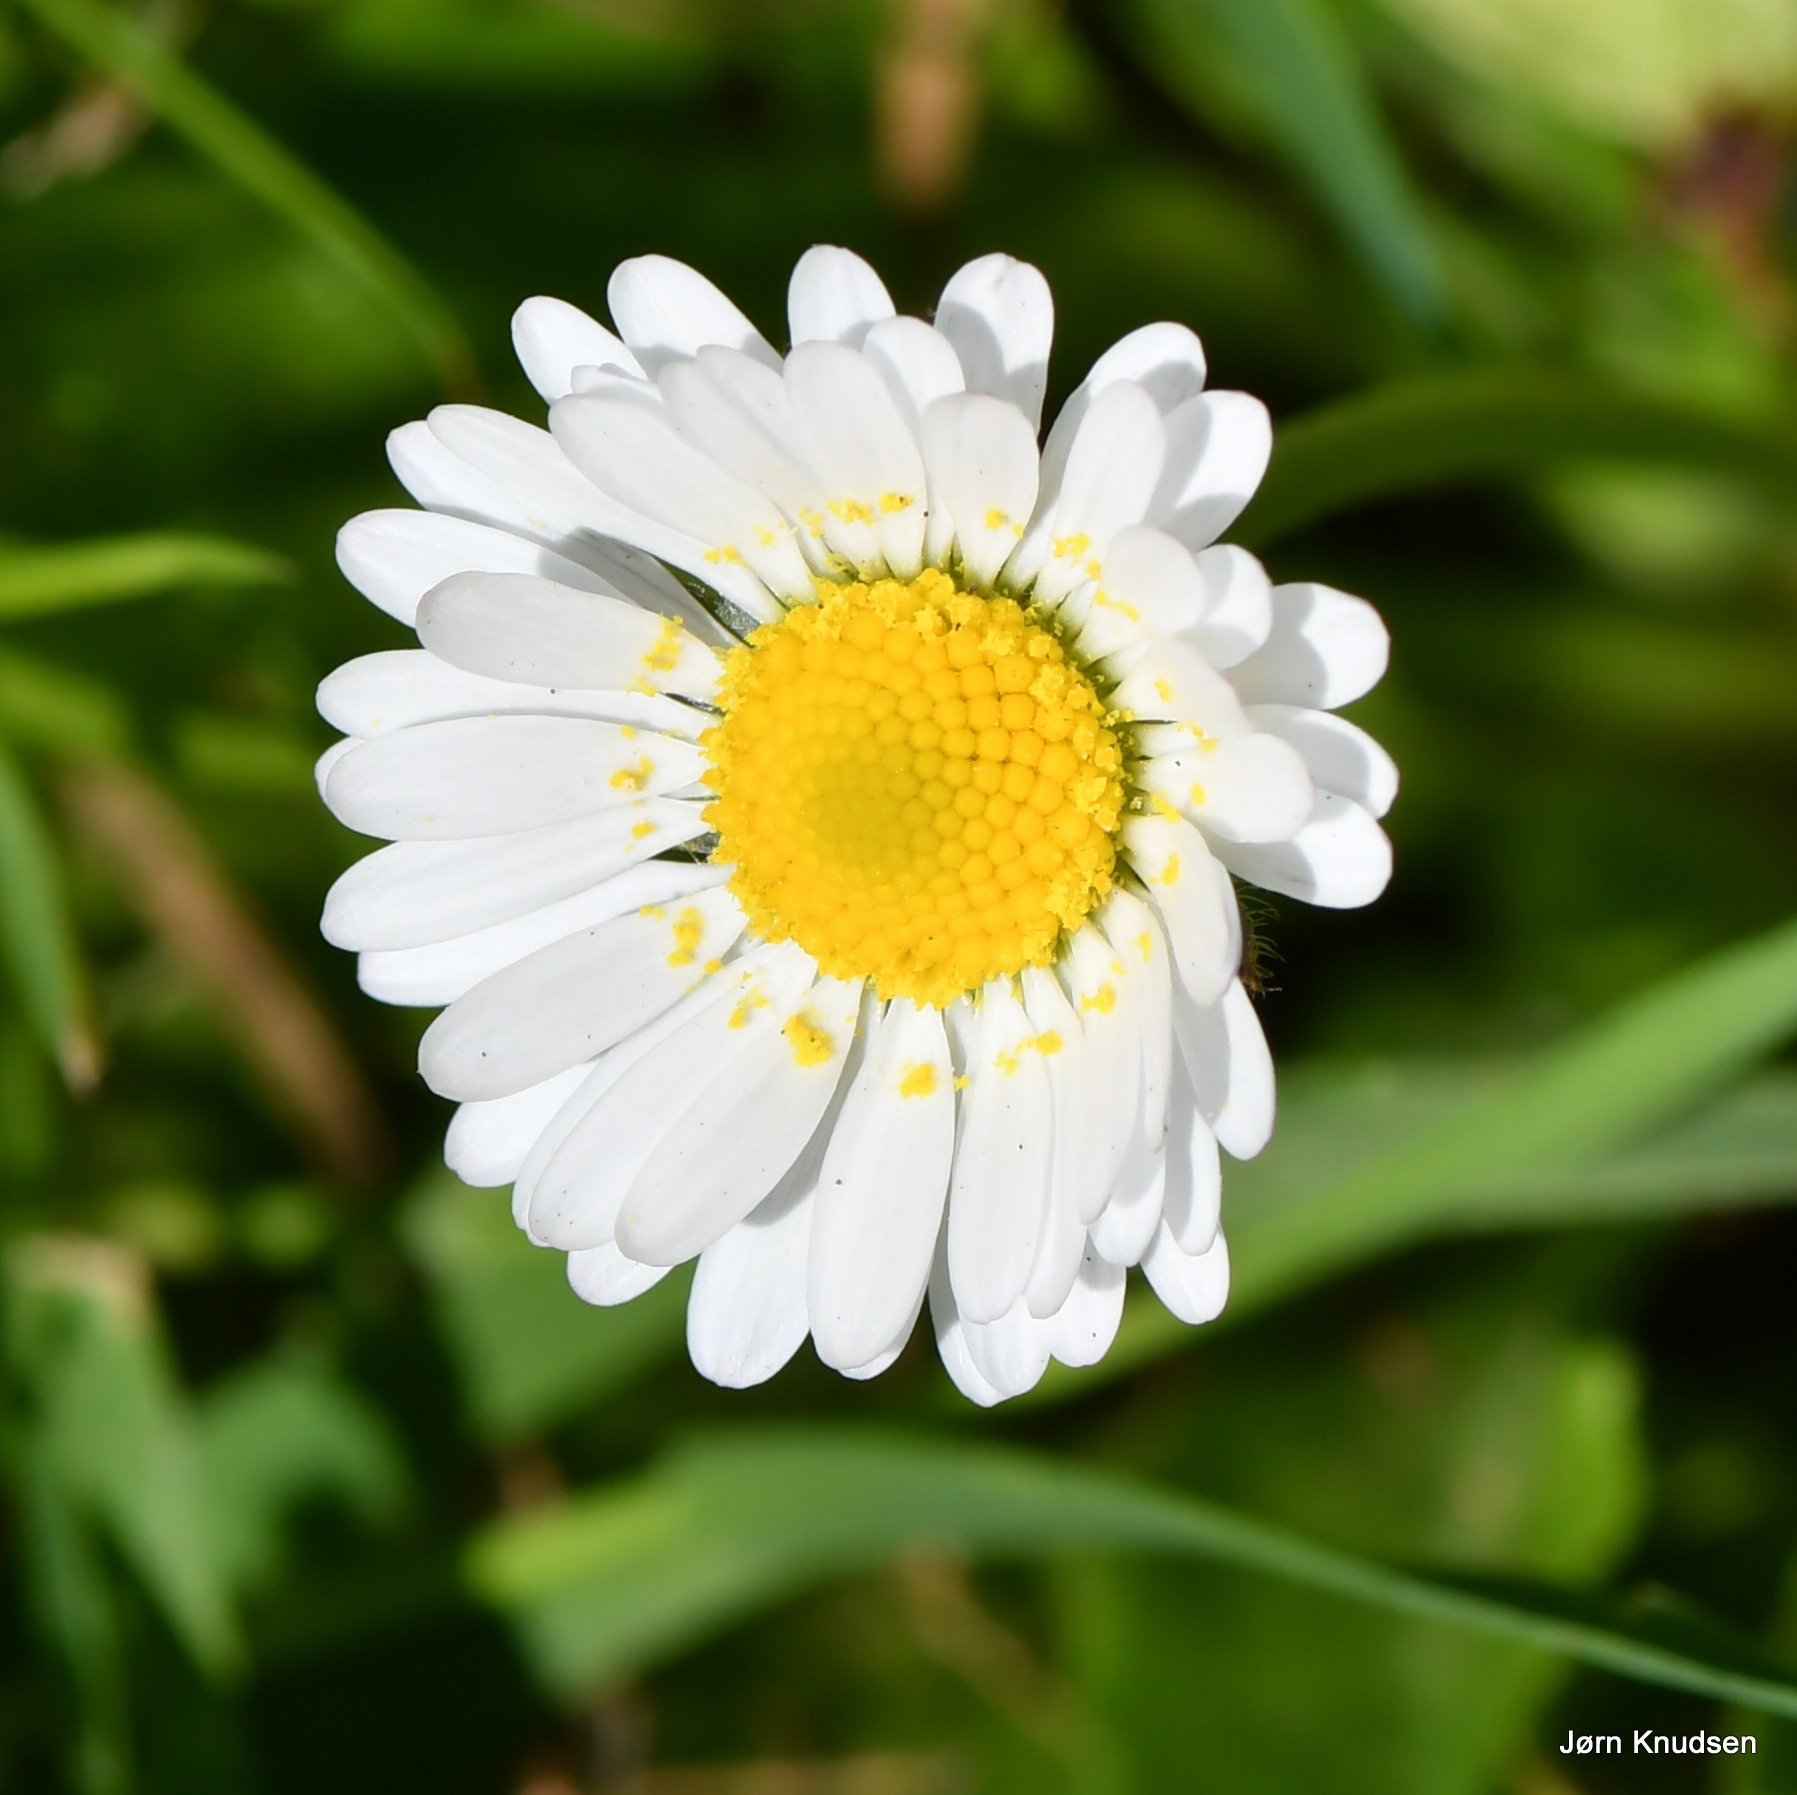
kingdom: Plantae
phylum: Tracheophyta
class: Magnoliopsida
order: Asterales
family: Asteraceae
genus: Bellis
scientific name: Bellis perennis
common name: Tusindfryd
